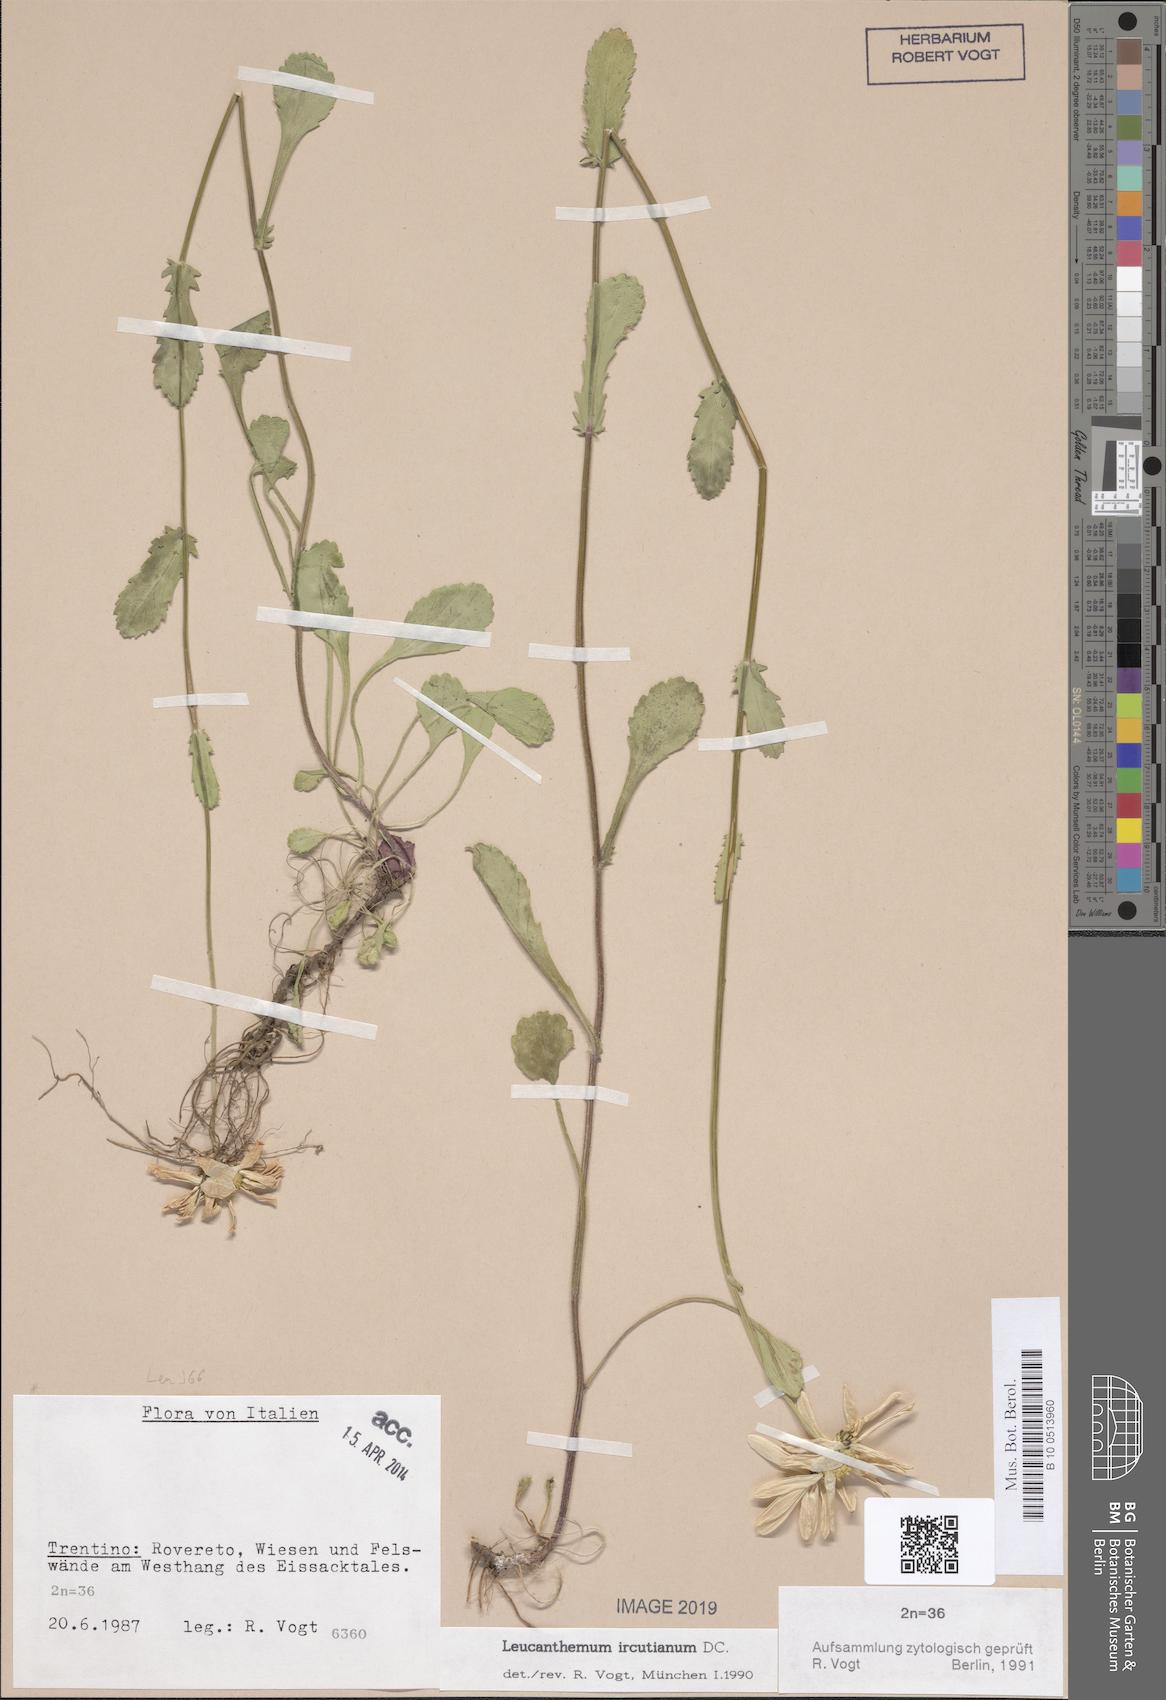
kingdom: Plantae
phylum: Tracheophyta
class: Magnoliopsida
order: Asterales
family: Asteraceae
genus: Leucanthemum
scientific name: Leucanthemum ircutianum
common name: Daisy
